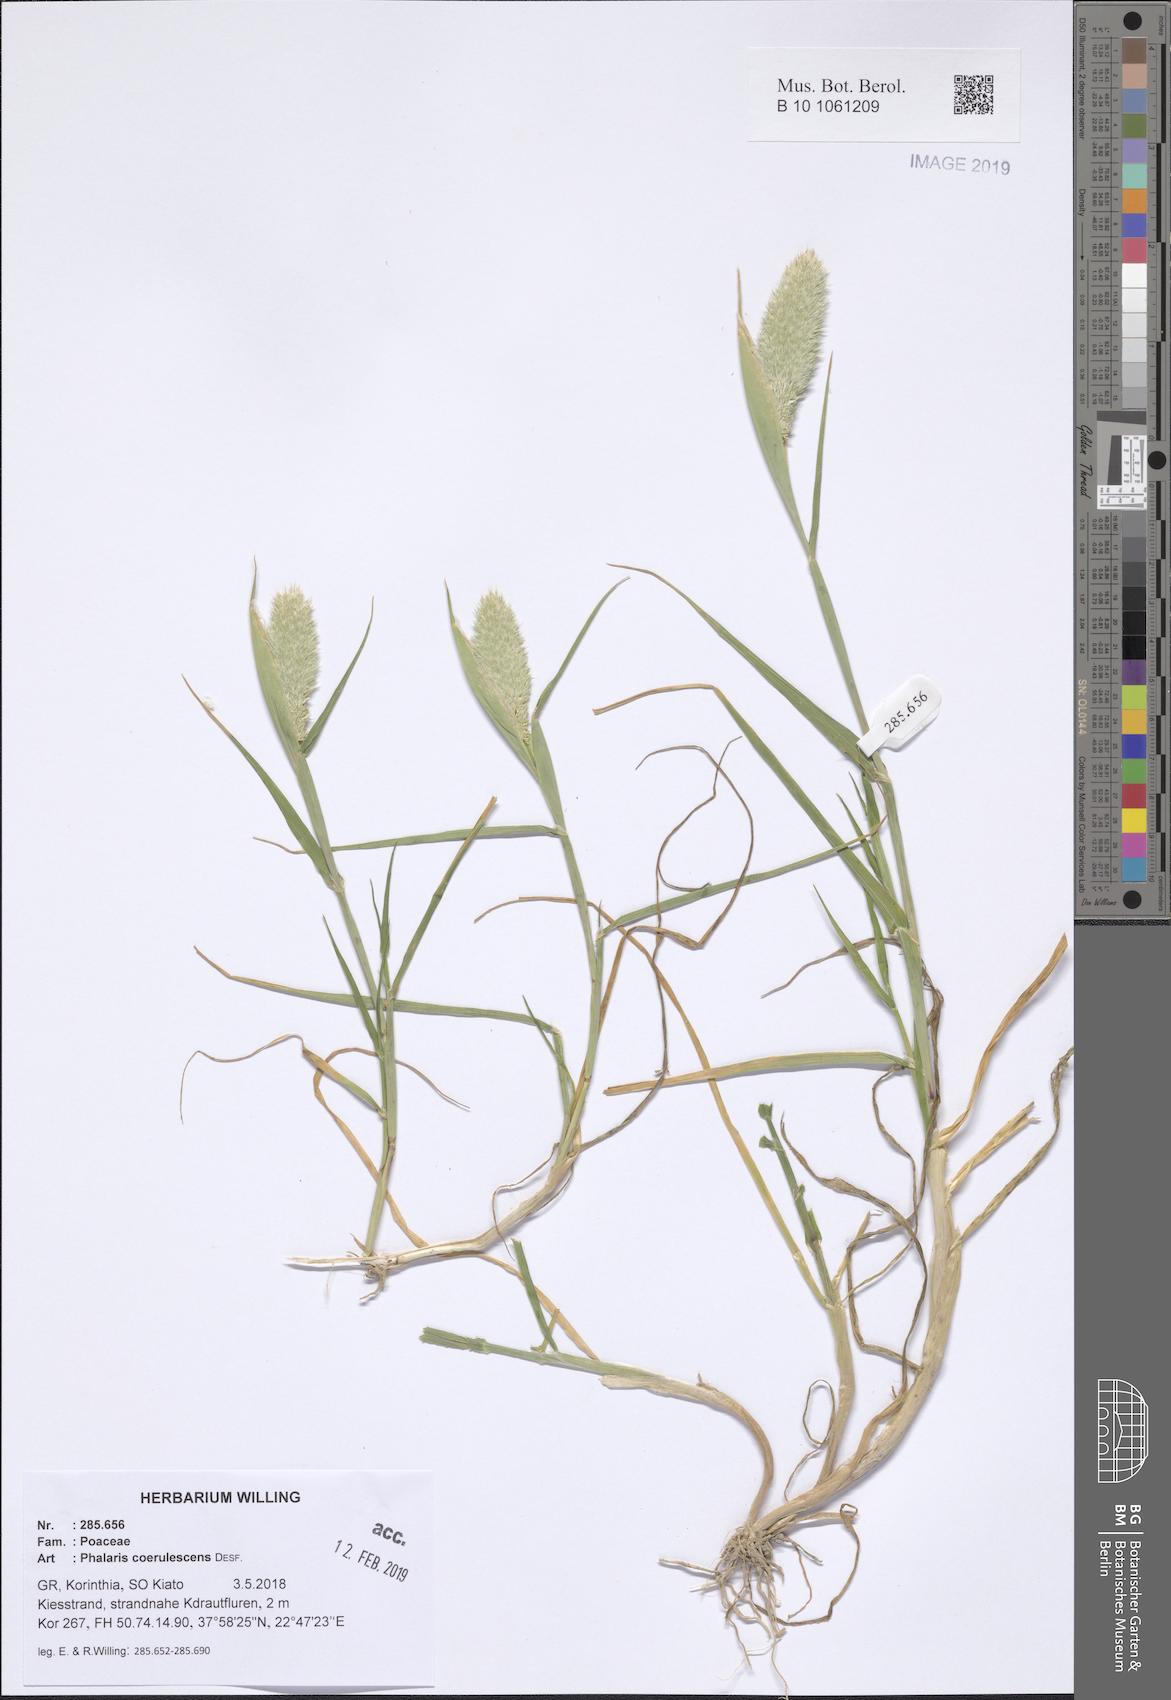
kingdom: Plantae
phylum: Tracheophyta
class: Liliopsida
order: Poales
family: Poaceae
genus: Phalaris
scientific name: Phalaris coerulescens
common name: Sunolgrass
